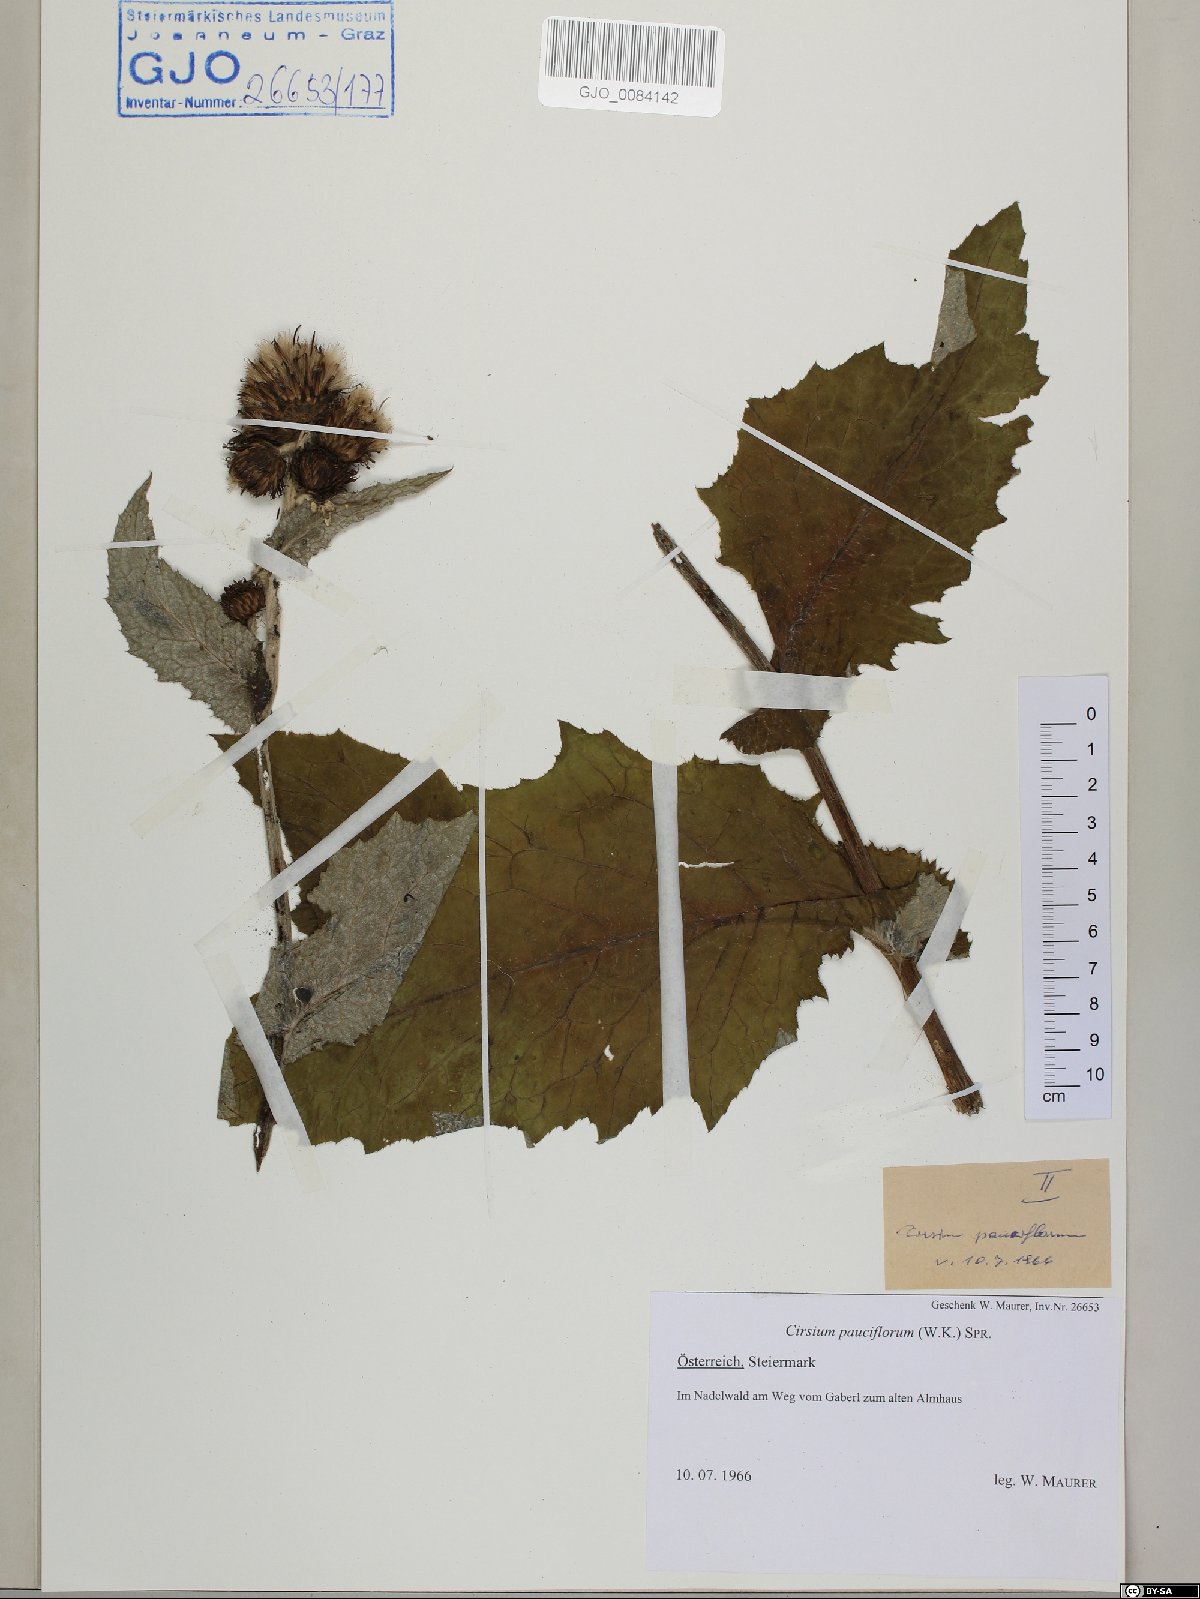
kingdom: Plantae
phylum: Tracheophyta
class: Magnoliopsida
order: Asterales
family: Asteraceae
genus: Cirsium
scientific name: Cirsium greimleri
